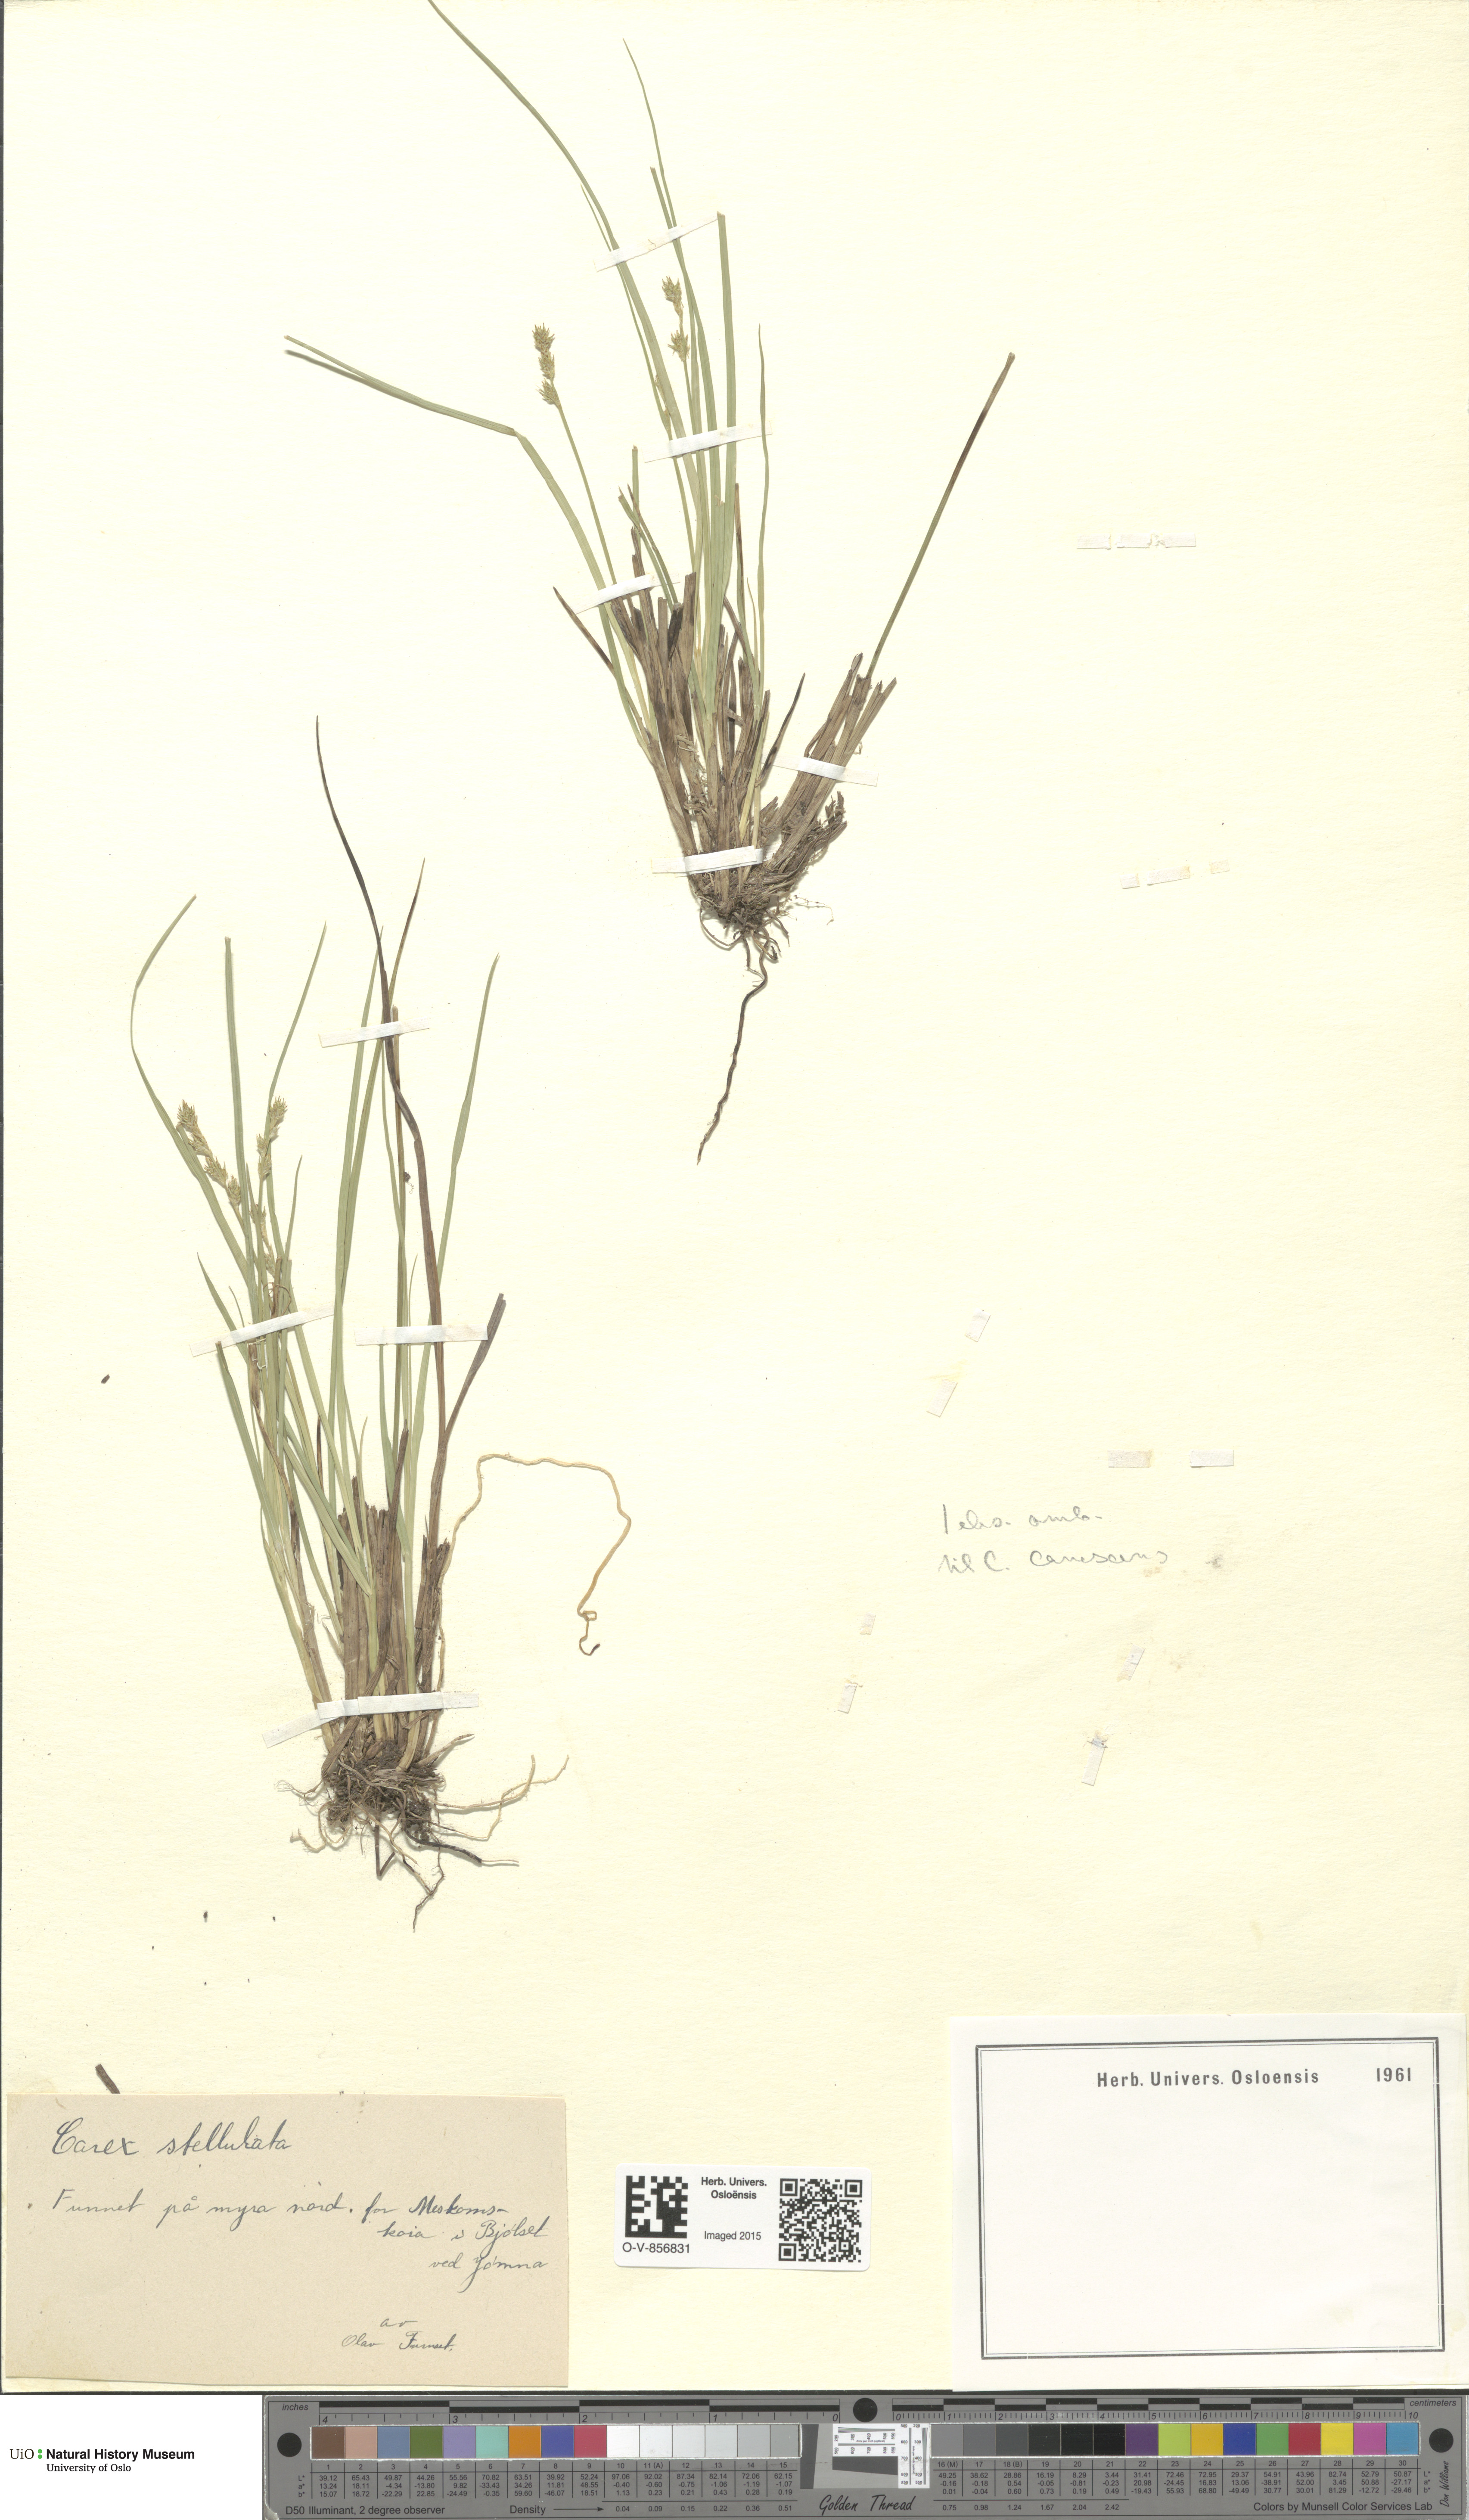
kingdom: Plantae
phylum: Tracheophyta
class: Liliopsida
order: Poales
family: Cyperaceae
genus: Carex
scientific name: Carex echinata
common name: Star sedge
